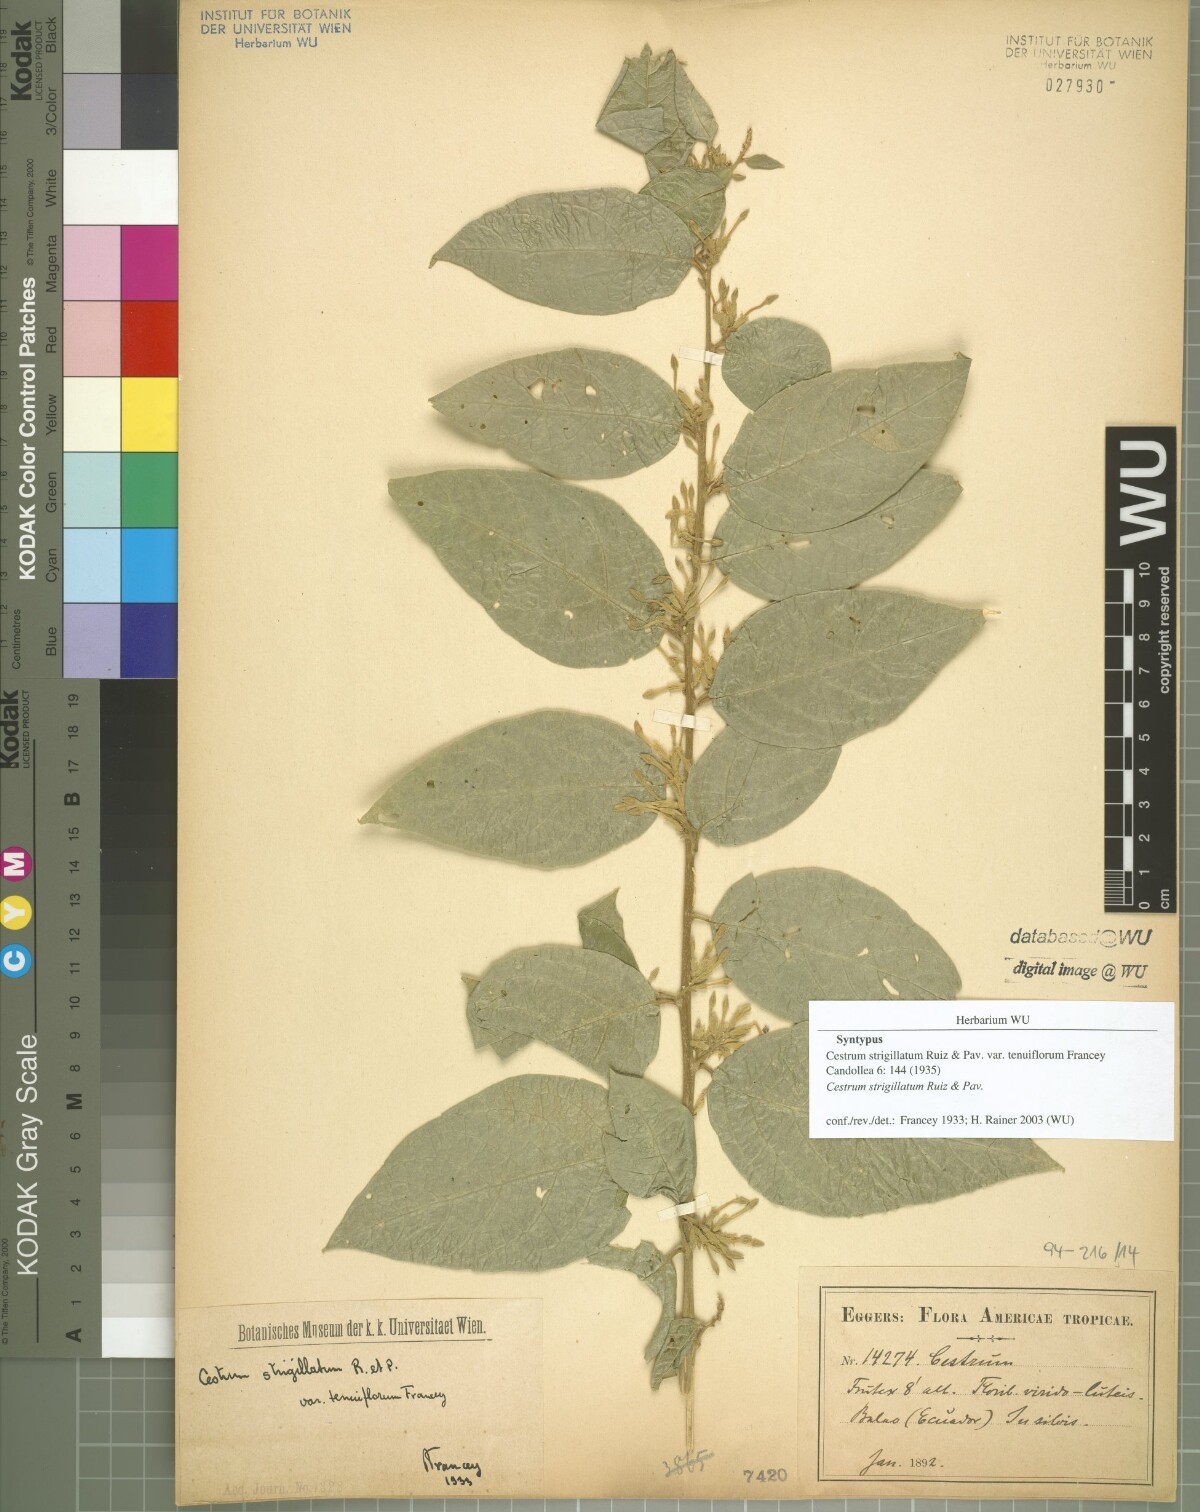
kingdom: Plantae
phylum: Tracheophyta
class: Magnoliopsida
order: Solanales
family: Solanaceae
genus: Cestrum
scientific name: Cestrum strigillatum
